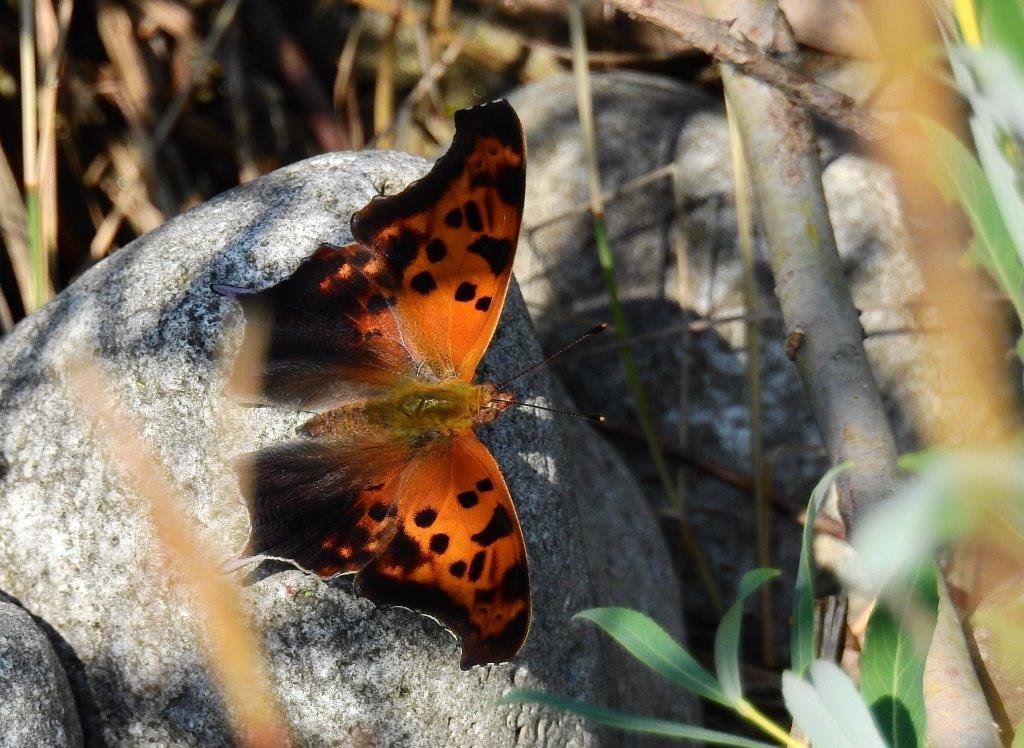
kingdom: Animalia
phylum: Arthropoda
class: Insecta
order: Lepidoptera
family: Nymphalidae
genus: Polygonia
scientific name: Polygonia interrogationis
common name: Question Mark
